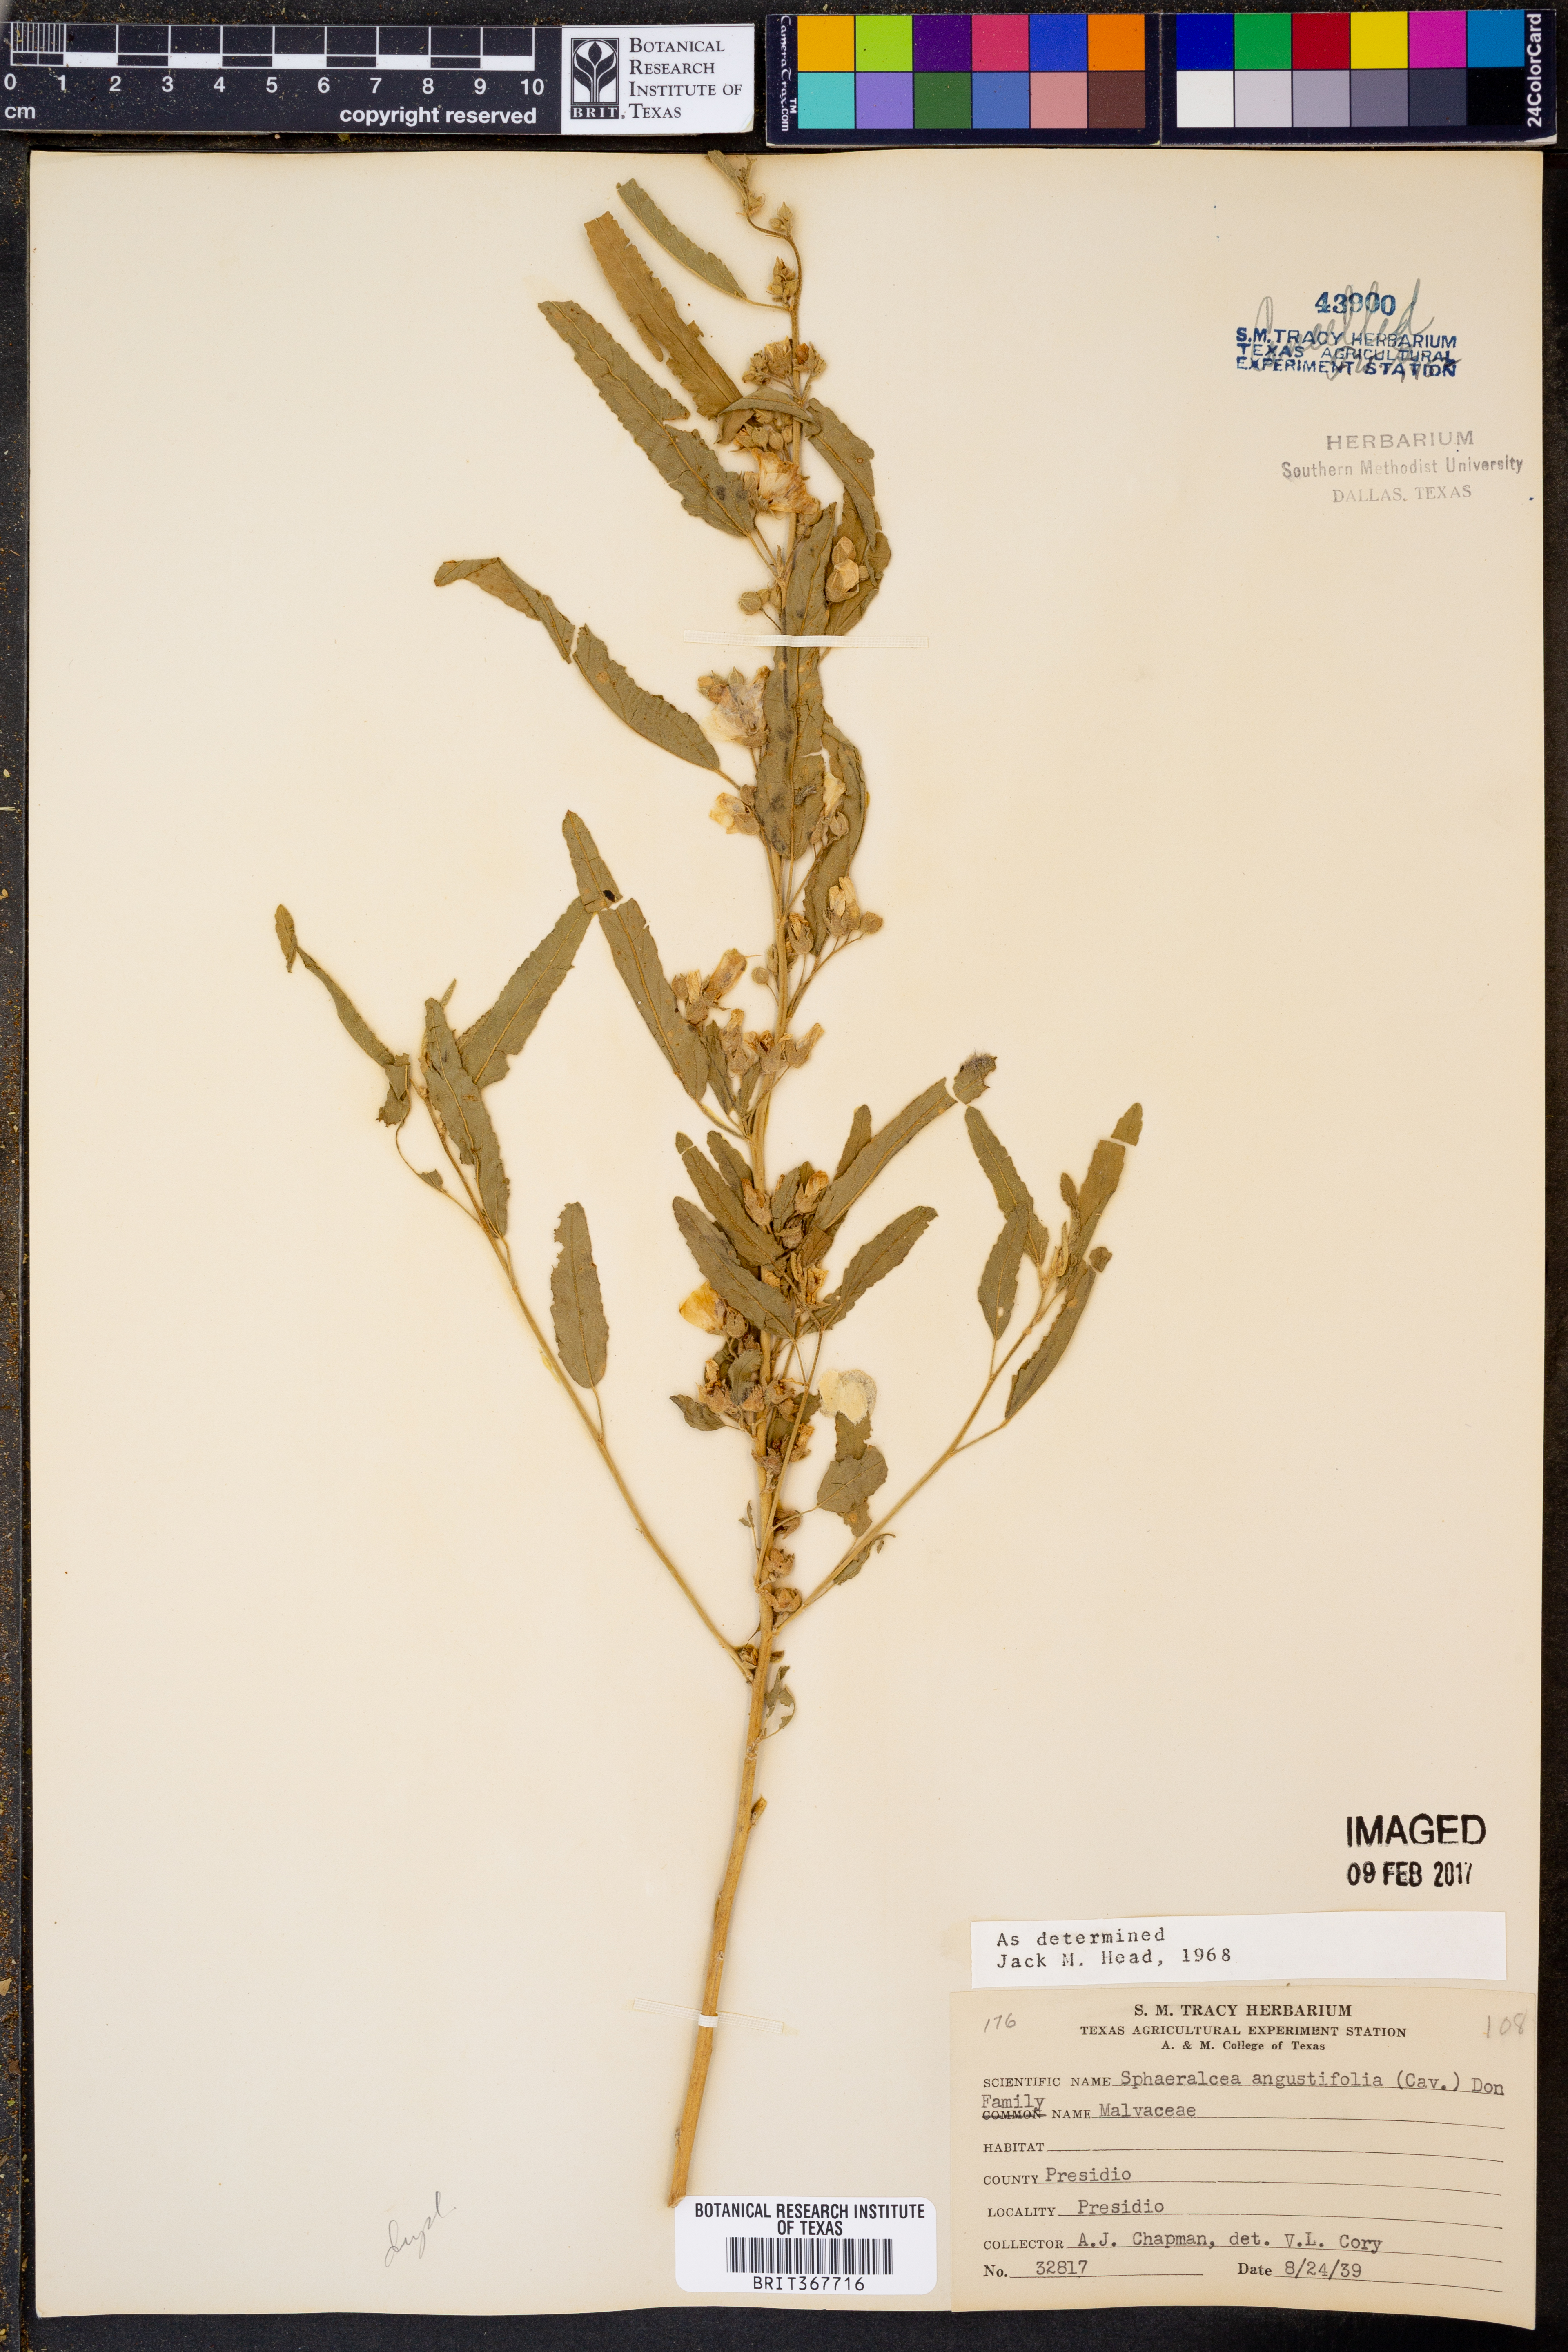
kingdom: Plantae
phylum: Tracheophyta
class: Magnoliopsida
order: Malvales
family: Malvaceae
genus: Sphaeralcea
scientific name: Sphaeralcea angustifolia
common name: Copper globe-mallow
